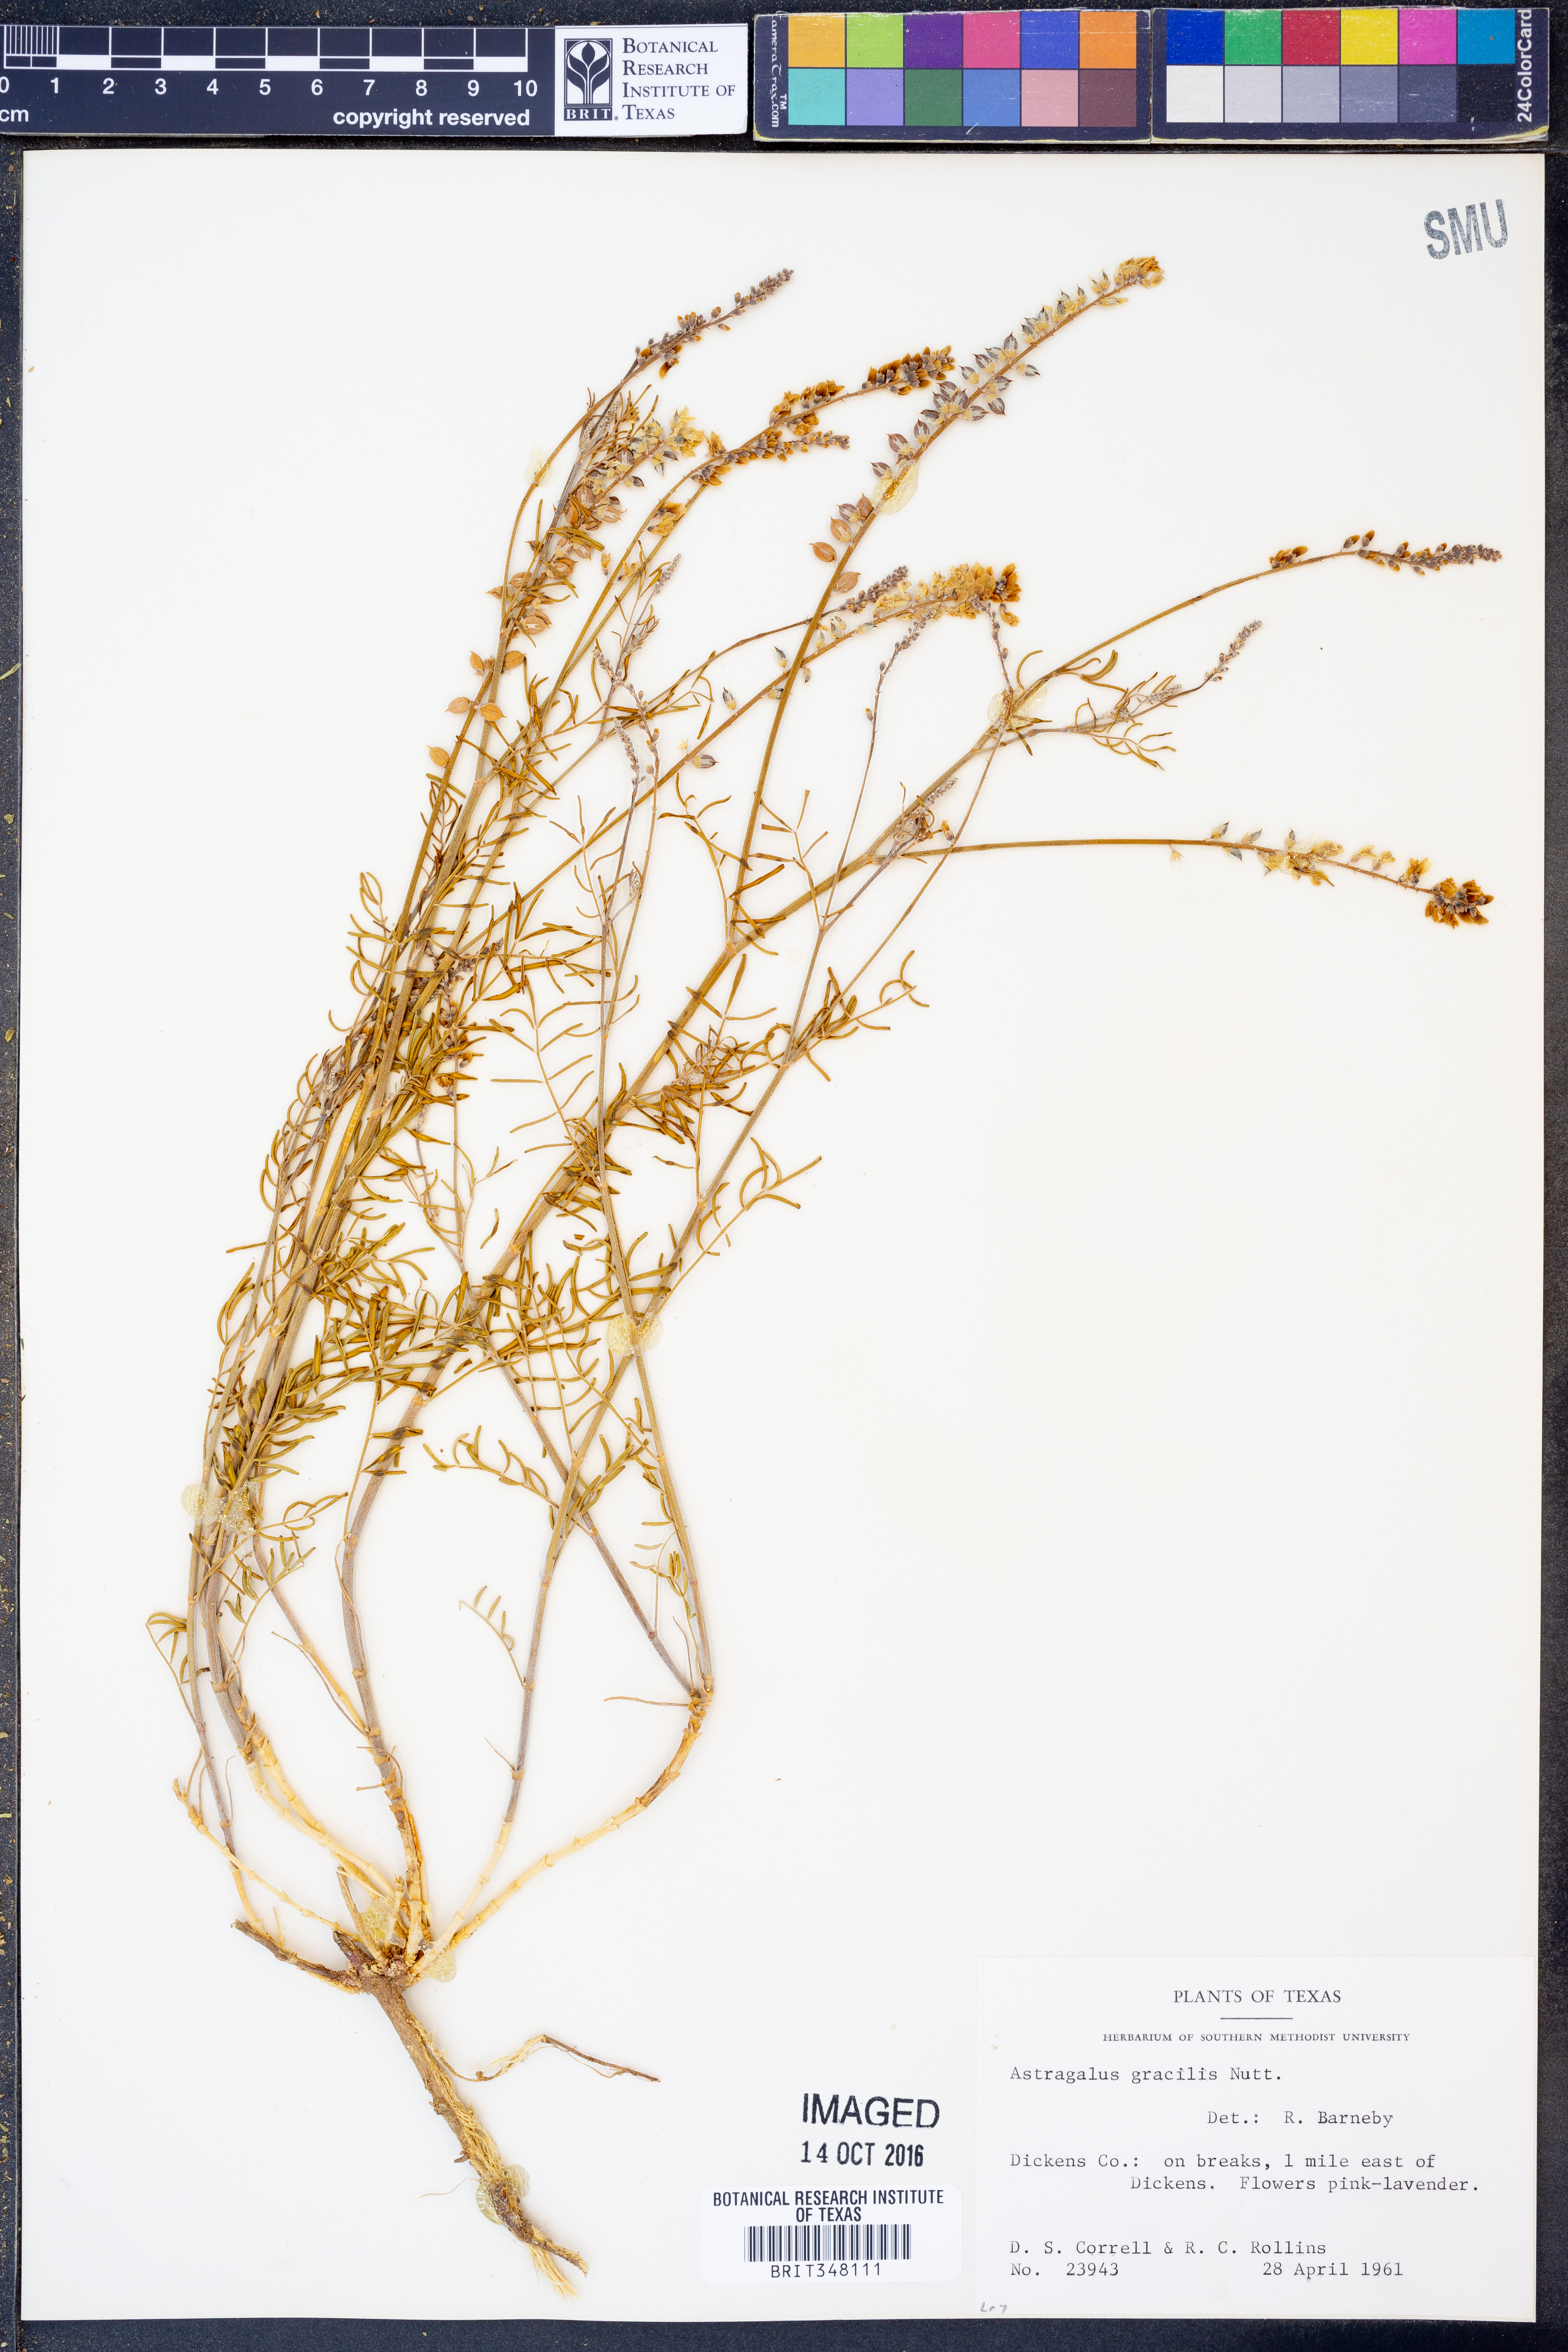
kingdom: Plantae
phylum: Tracheophyta
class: Magnoliopsida
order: Fabales
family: Fabaceae
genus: Astragalus
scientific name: Astragalus gracilis
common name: Slender milk-vetch
